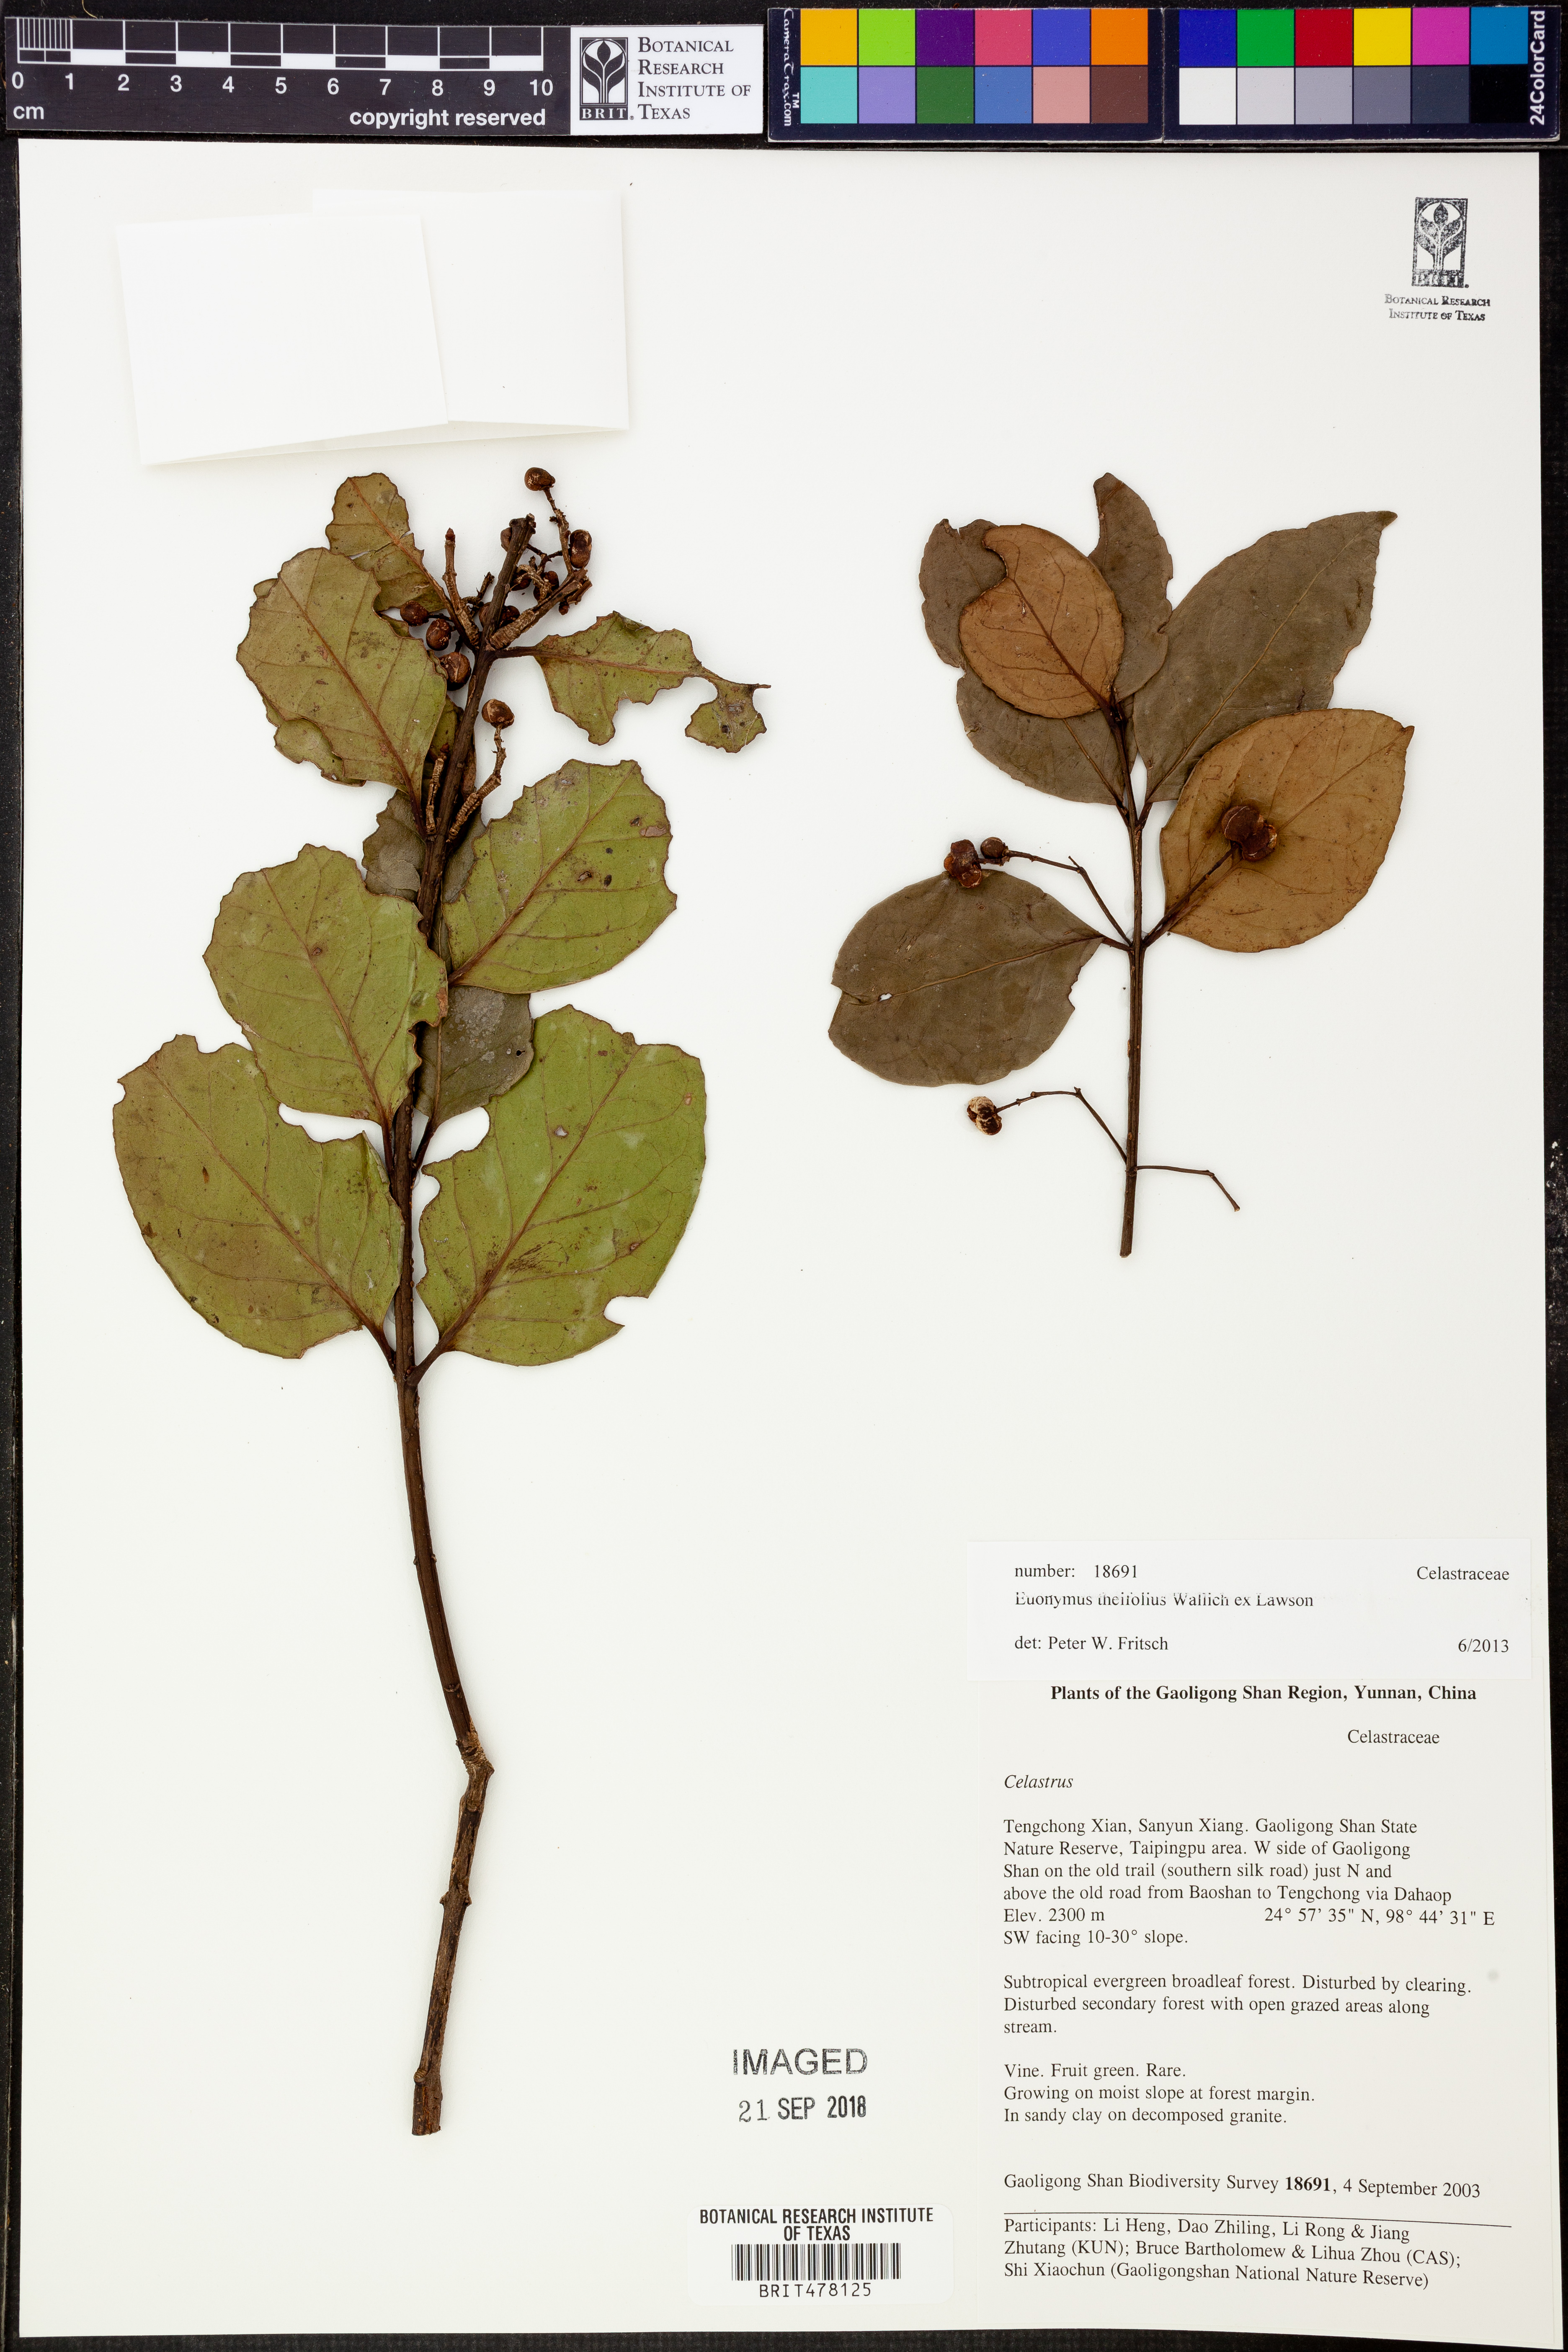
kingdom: Plantae
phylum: Tracheophyta
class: Magnoliopsida
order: Celastrales
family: Celastraceae
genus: Euonymus
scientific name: Euonymus theifolius
